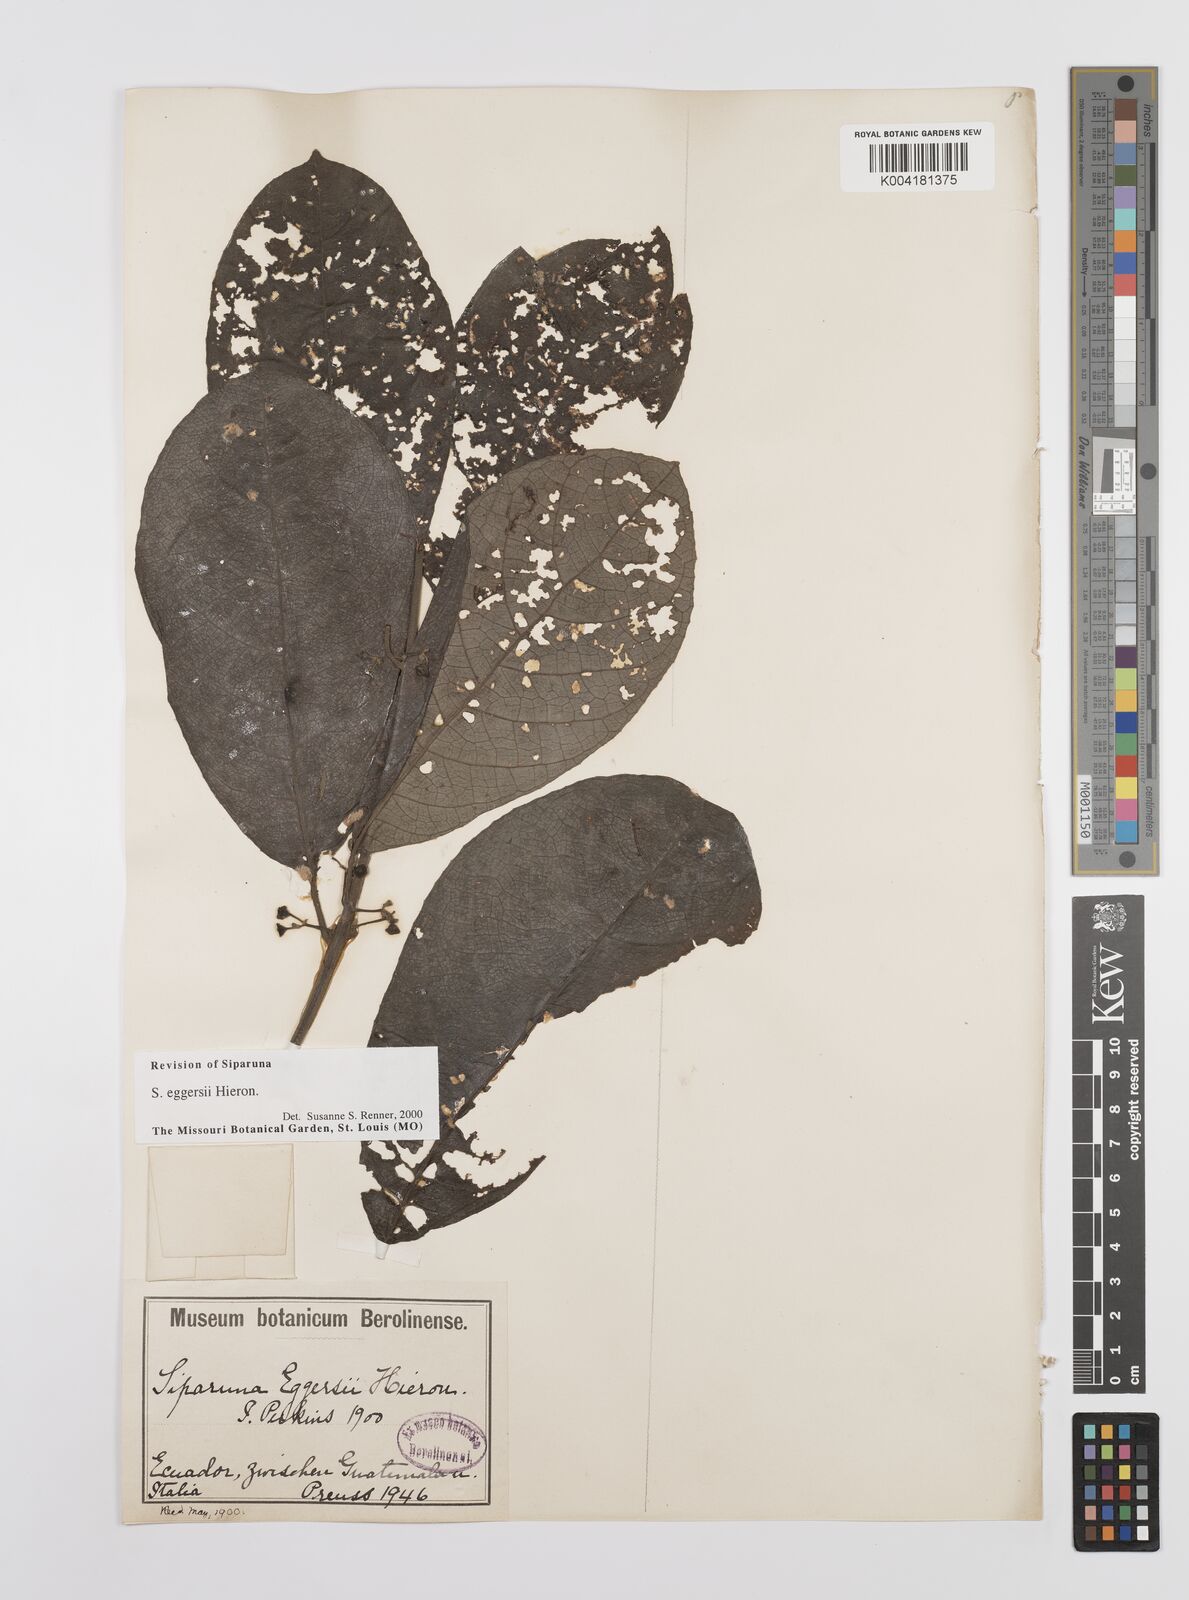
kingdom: Plantae
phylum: Tracheophyta
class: Magnoliopsida
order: Laurales
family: Siparunaceae
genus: Siparuna
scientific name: Siparuna eggersii
